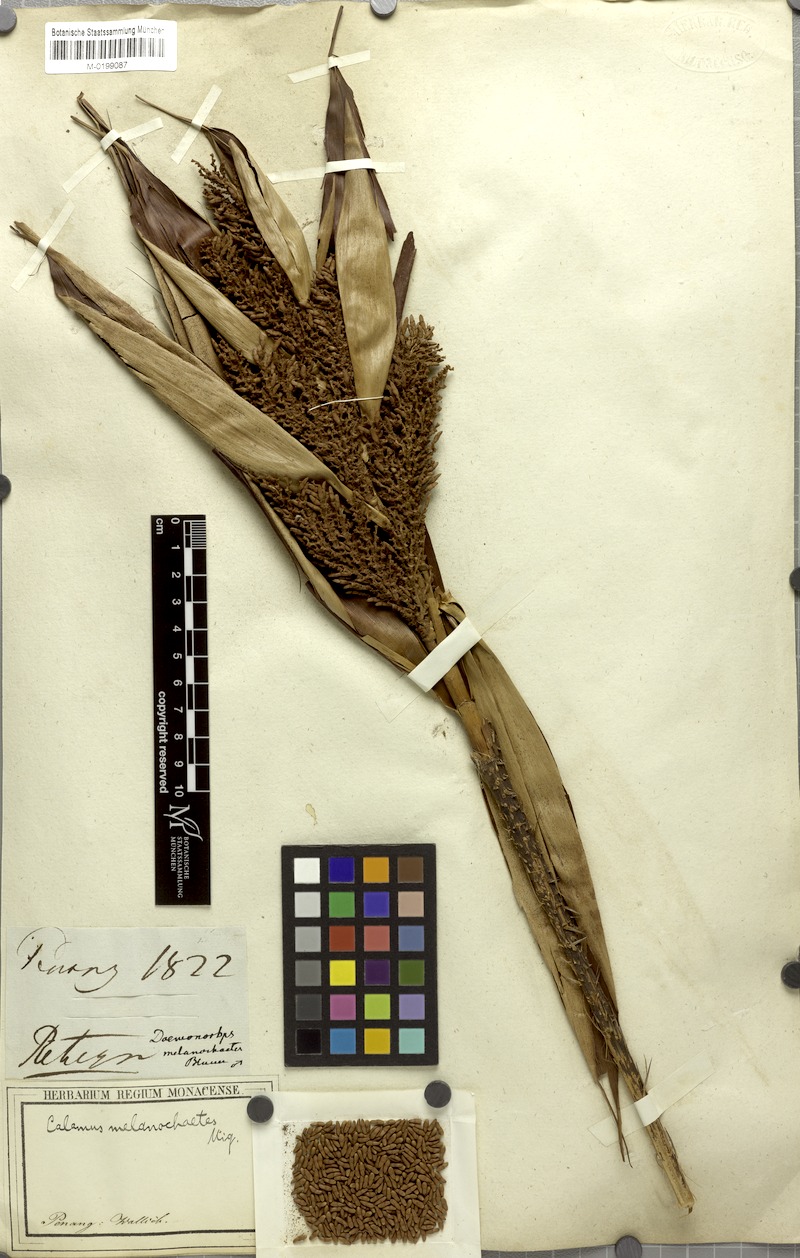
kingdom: Plantae
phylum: Tracheophyta
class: Liliopsida
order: Arecales
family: Arecaceae
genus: Calamus
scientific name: Calamus melanochaetes
